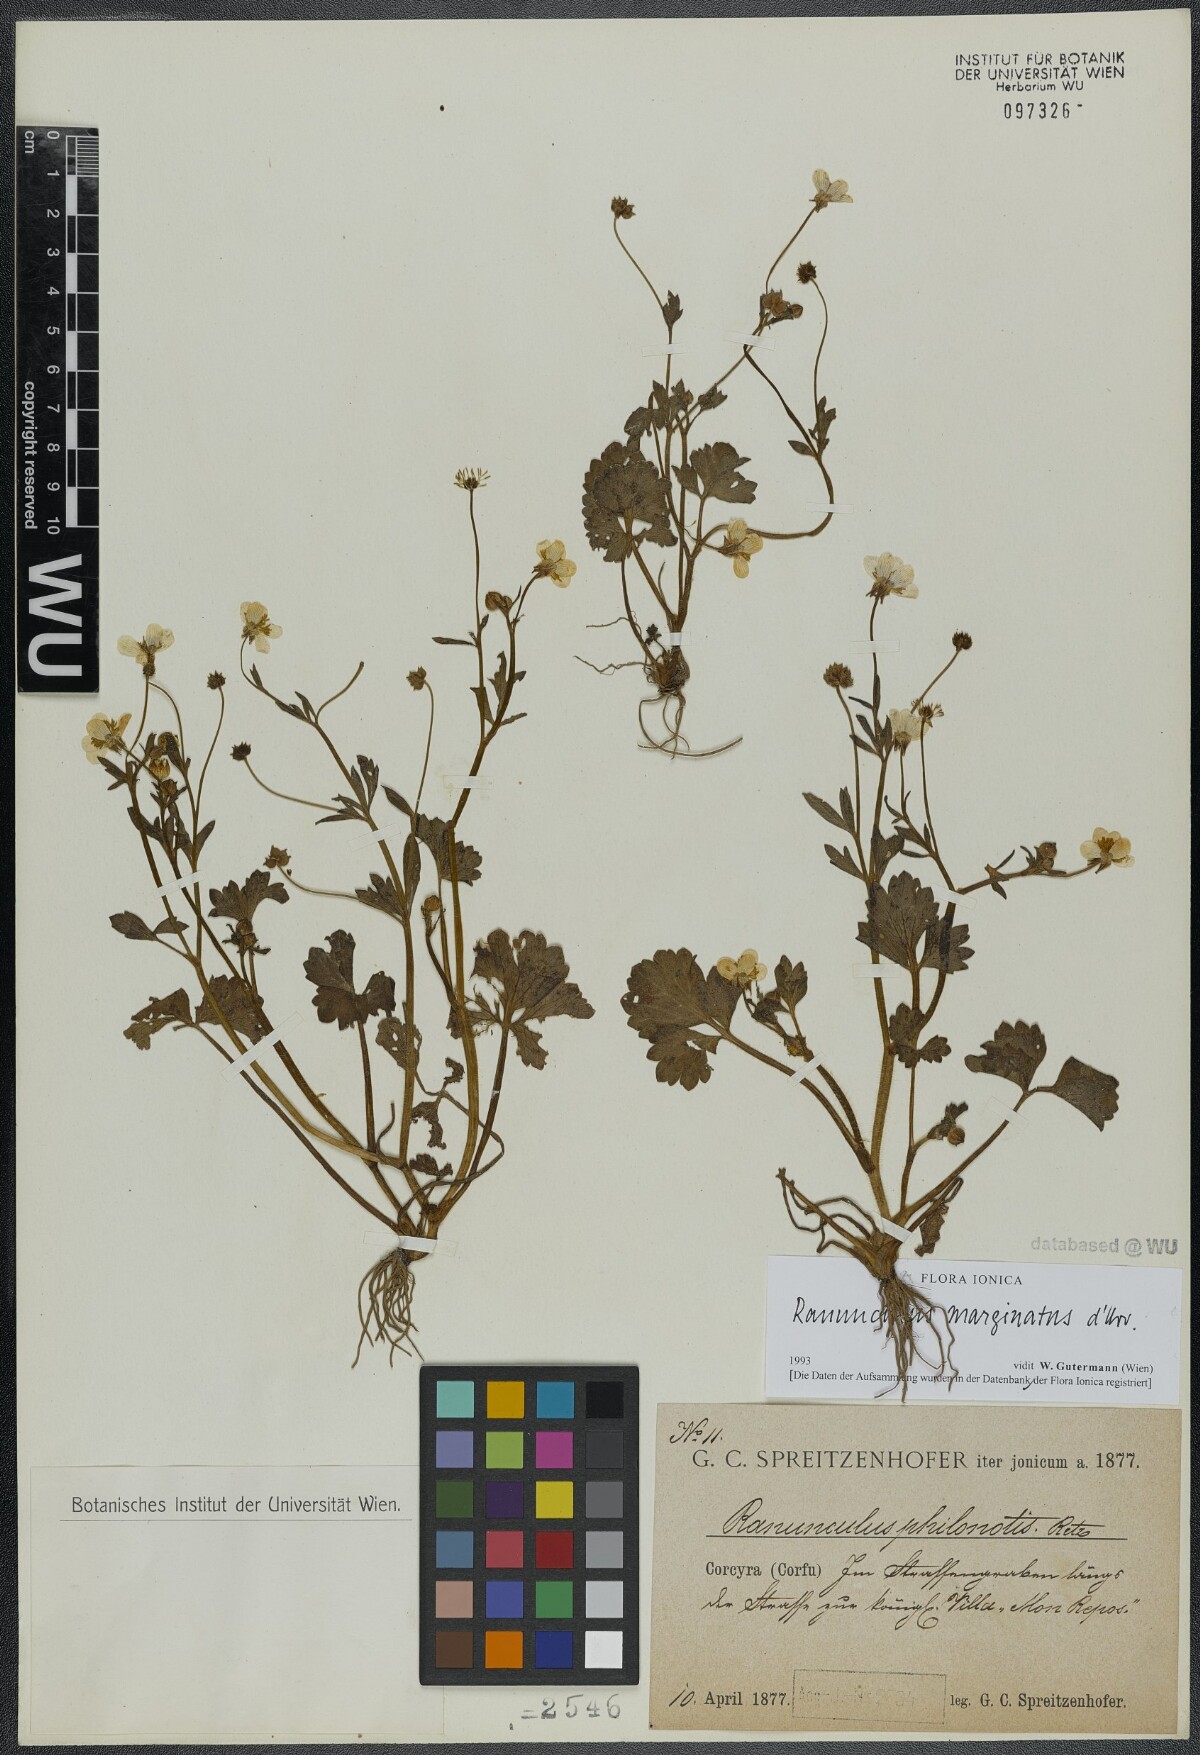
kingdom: Plantae
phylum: Tracheophyta
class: Magnoliopsida
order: Ranunculales
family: Ranunculaceae
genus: Ranunculus
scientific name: Ranunculus marginatus
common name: St. martin's buttercup
